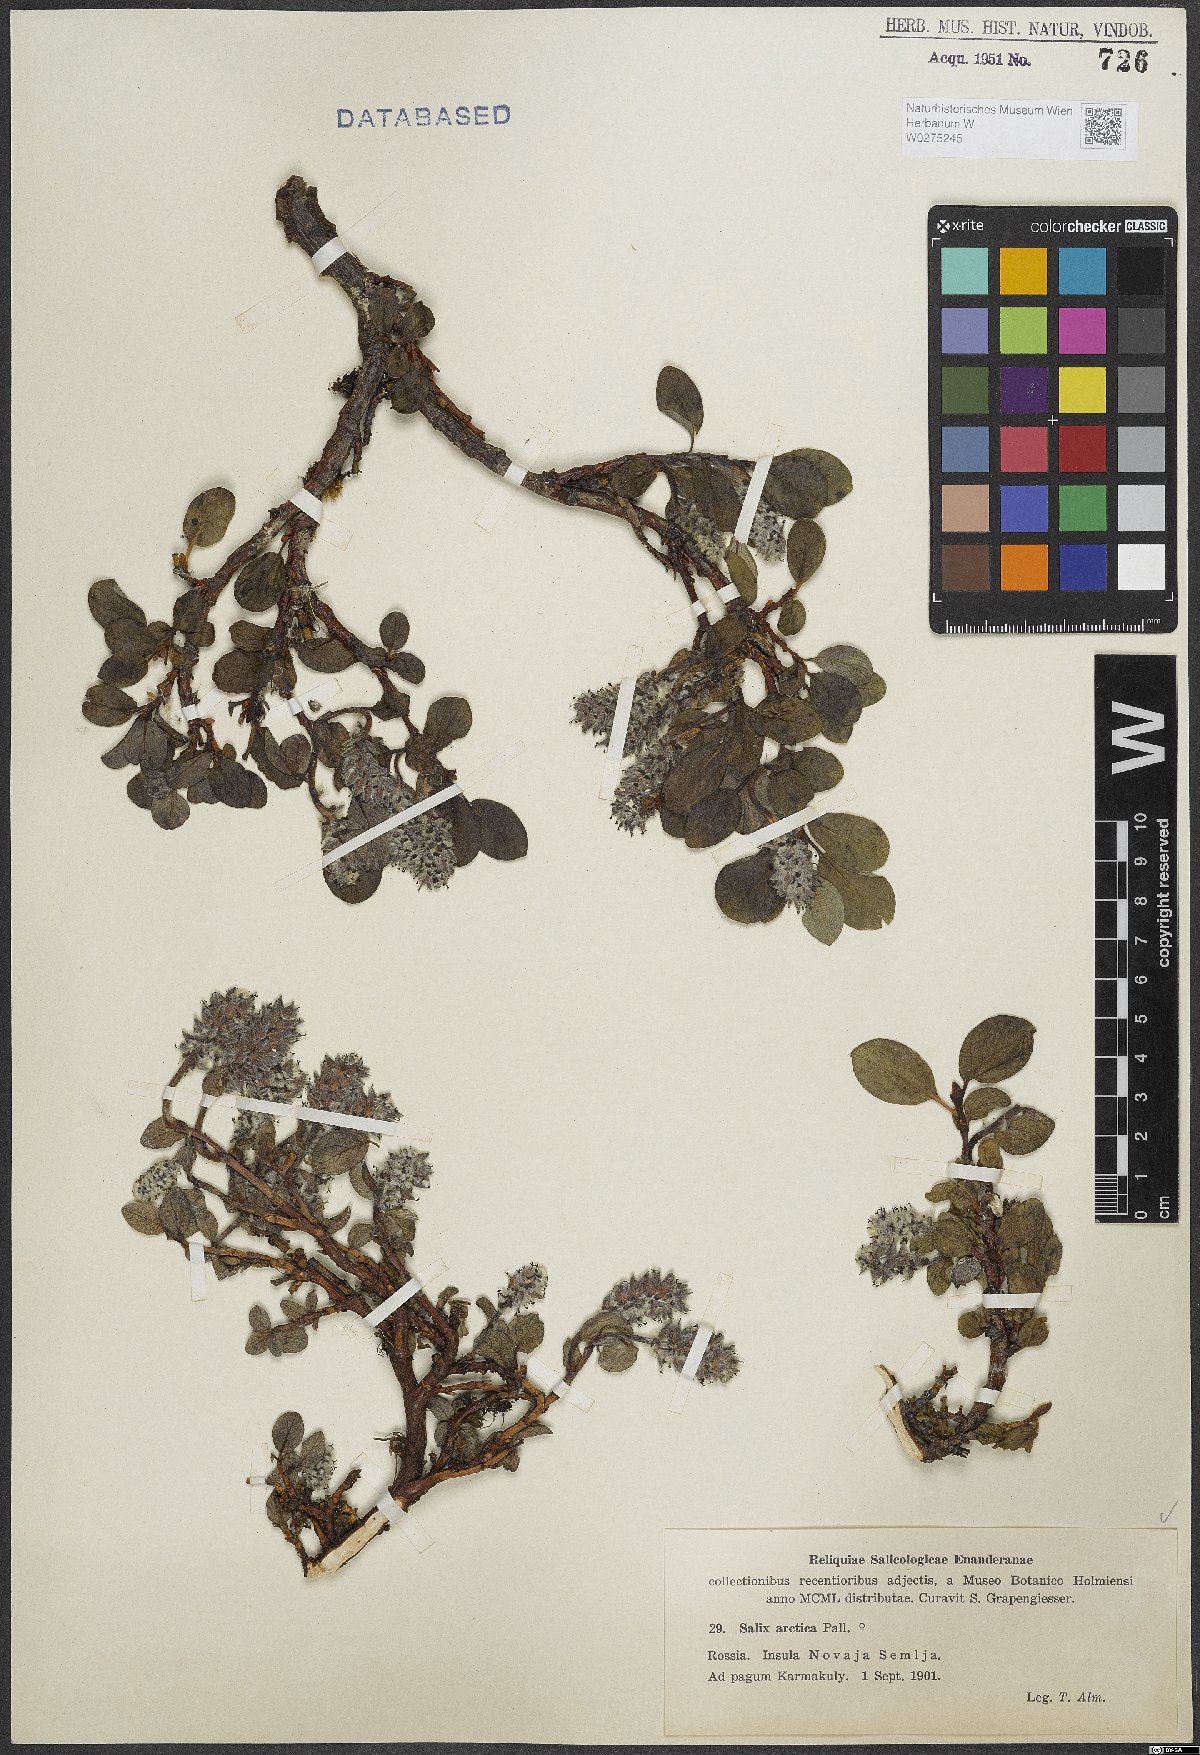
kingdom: Plantae
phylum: Tracheophyta
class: Magnoliopsida
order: Malpighiales
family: Salicaceae
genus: Salix
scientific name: Salix arctica
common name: Arctic willow
